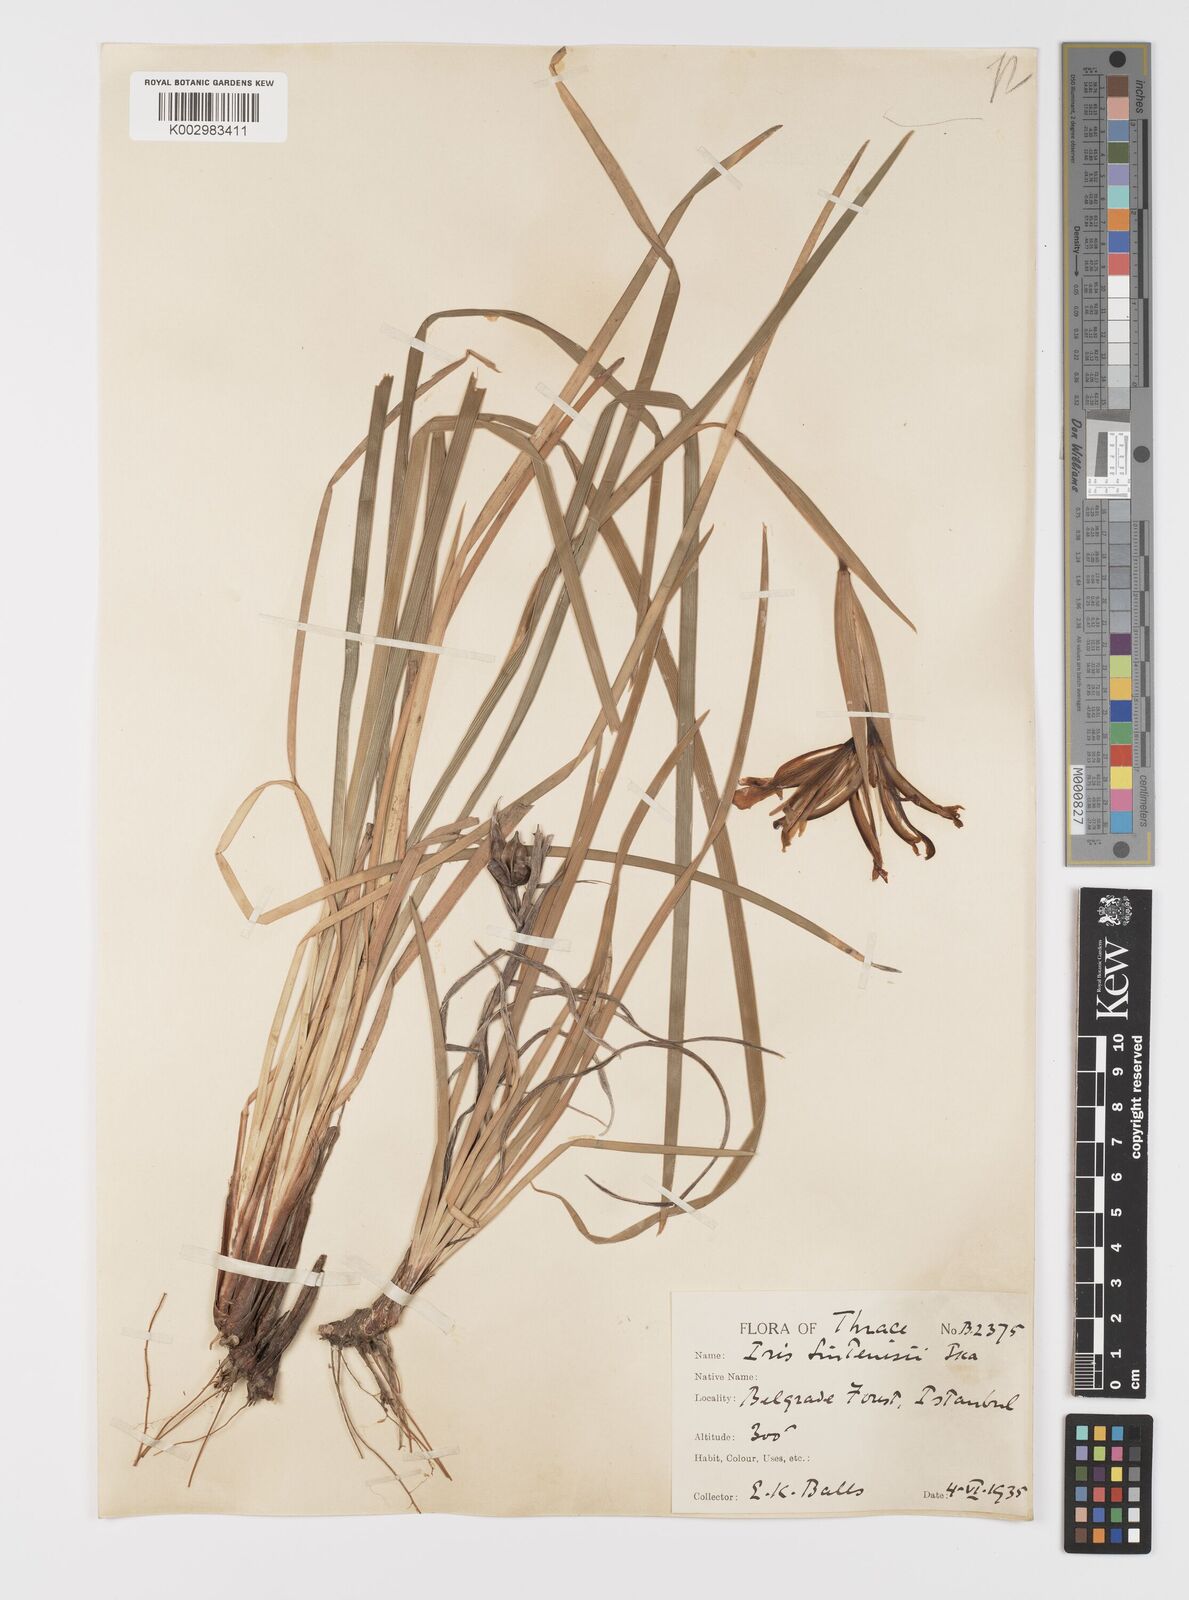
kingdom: Plantae
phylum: Tracheophyta
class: Liliopsida
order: Asparagales
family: Iridaceae
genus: Iris
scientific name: Iris sintenisii
